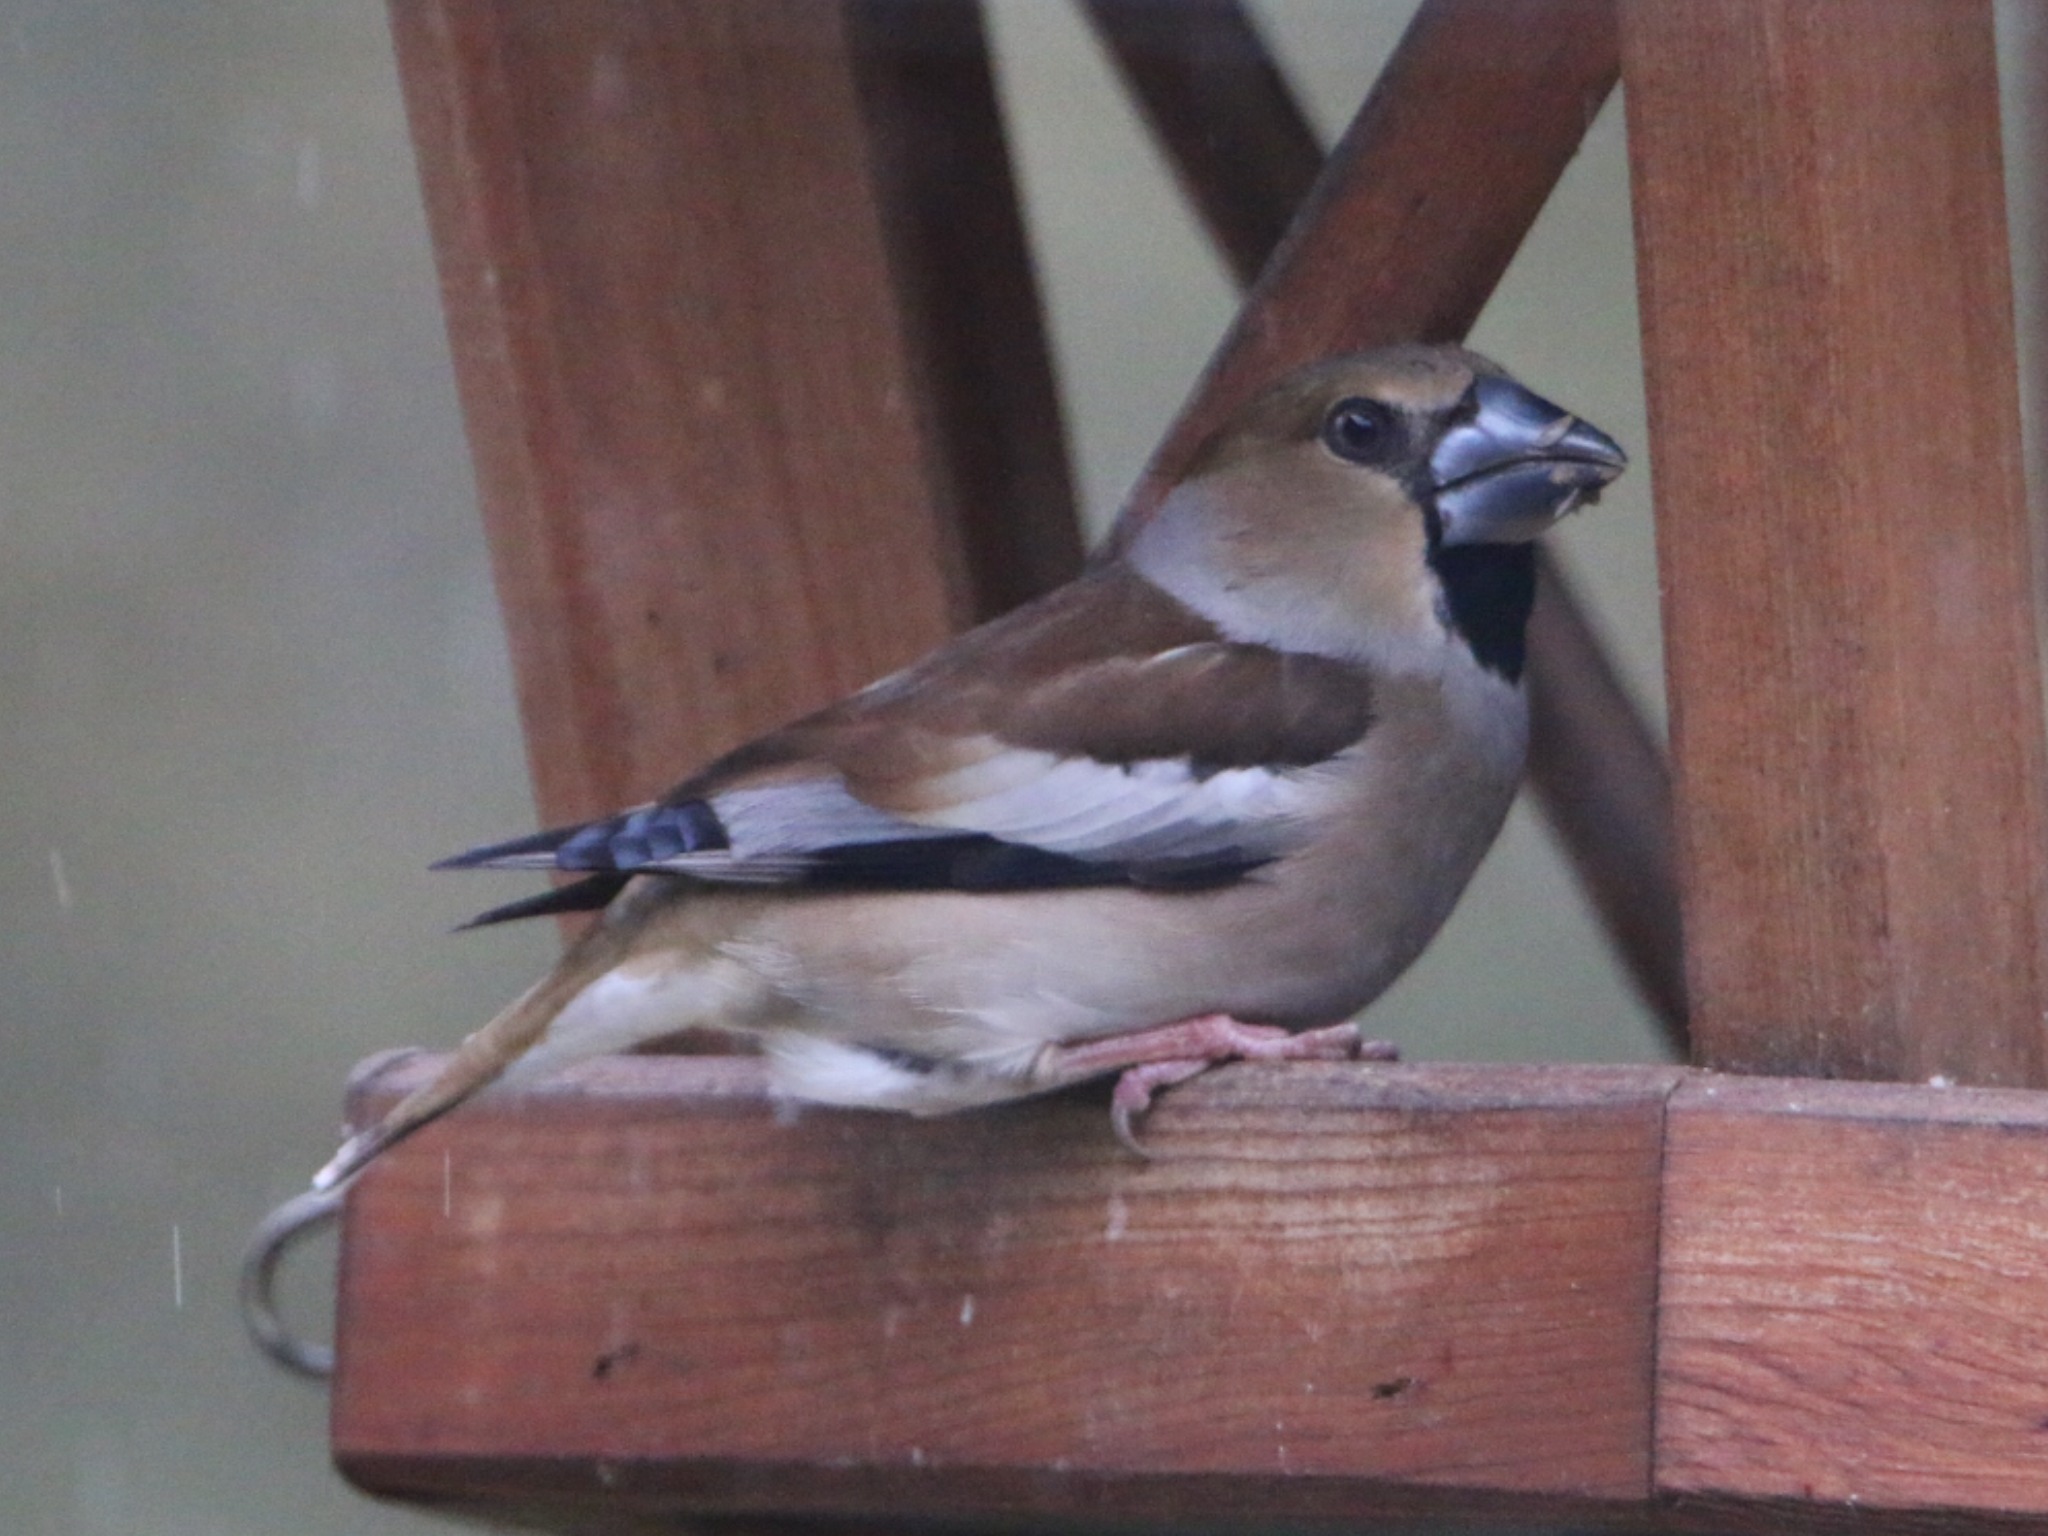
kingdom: Animalia
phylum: Chordata
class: Aves
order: Passeriformes
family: Fringillidae
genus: Coccothraustes
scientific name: Coccothraustes coccothraustes
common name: Kernebider
